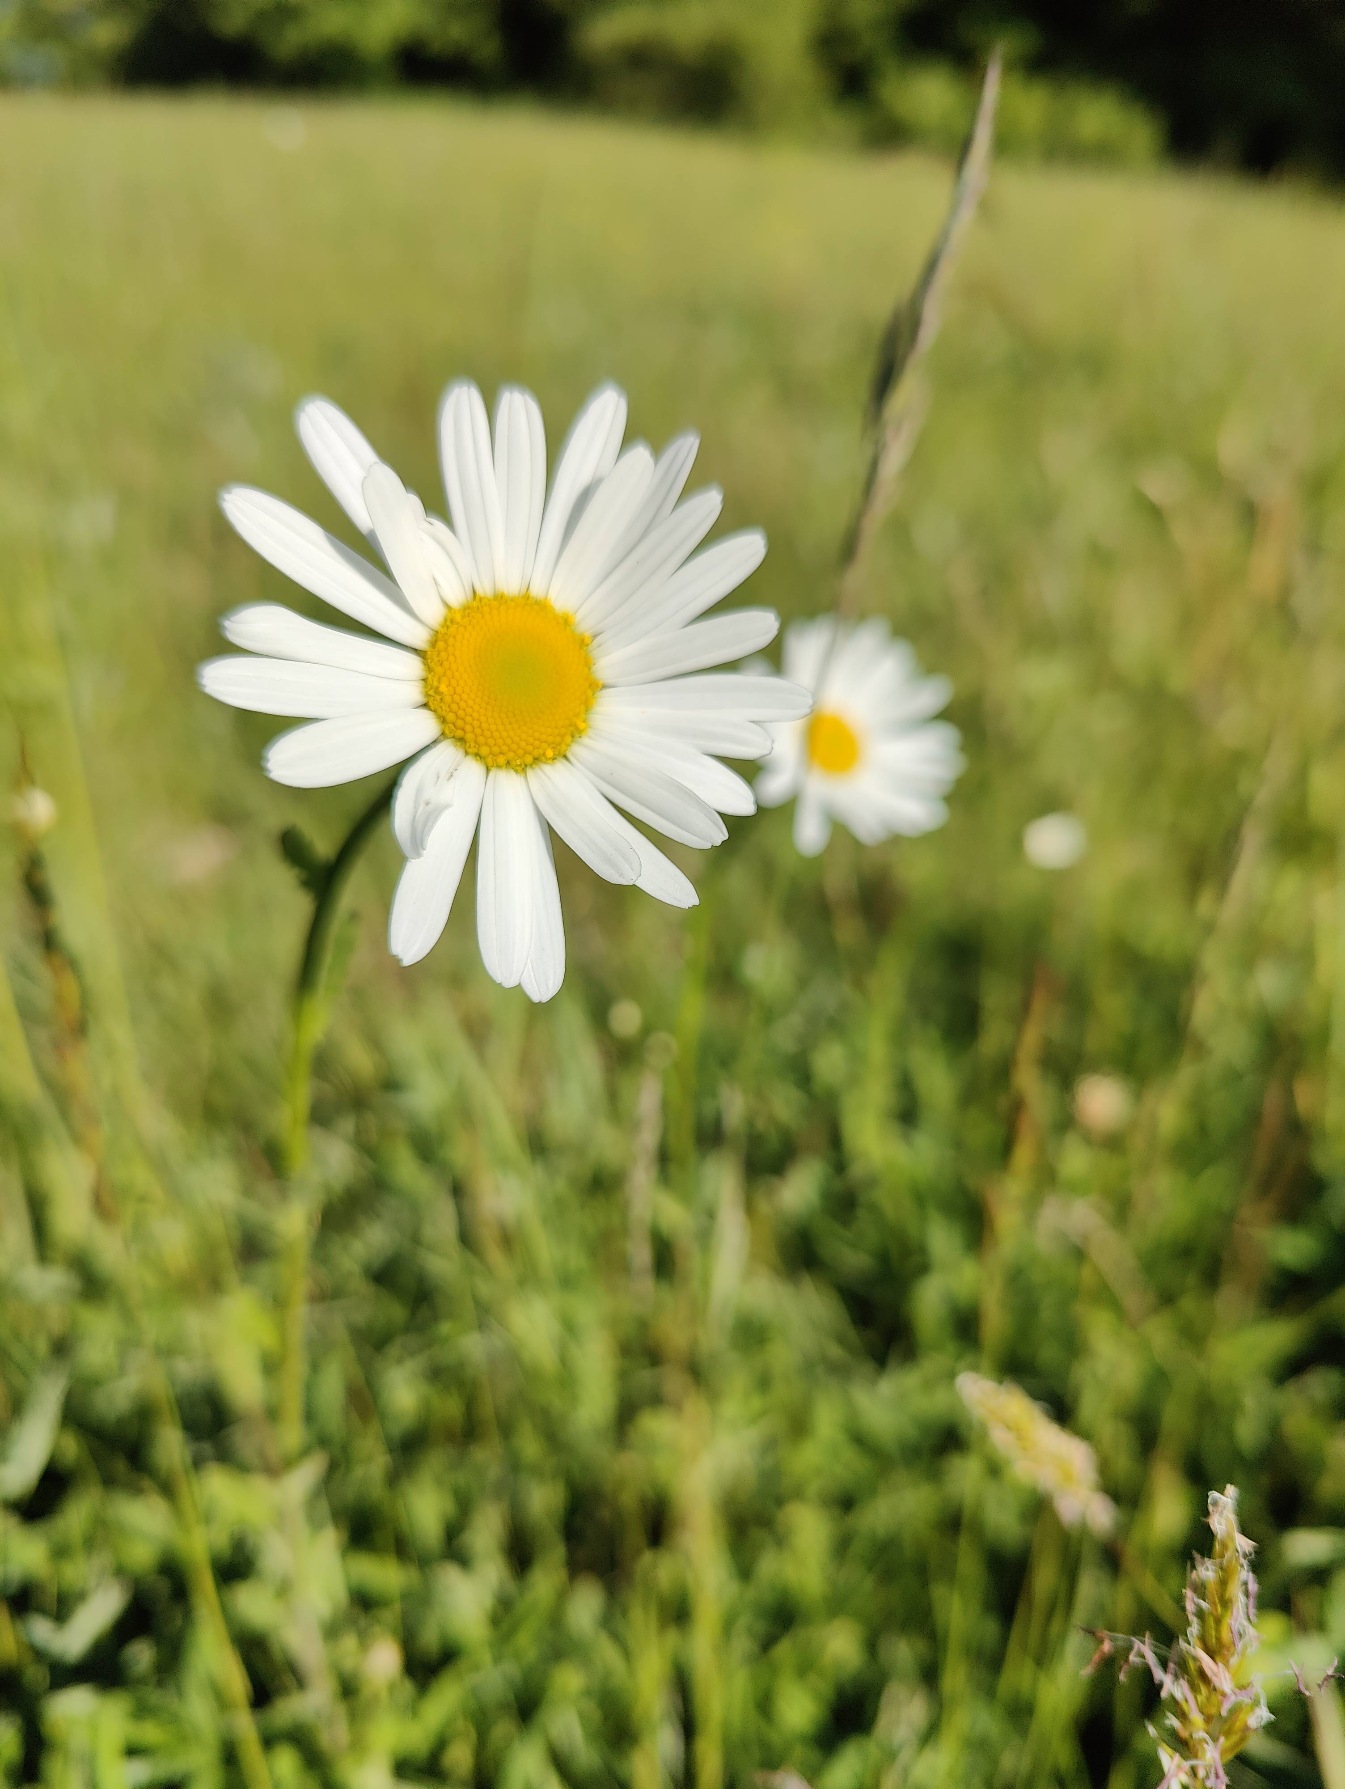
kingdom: Plantae
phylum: Tracheophyta
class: Magnoliopsida
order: Asterales
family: Asteraceae
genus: Leucanthemum
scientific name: Leucanthemum vulgare
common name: Hvid okseøje
